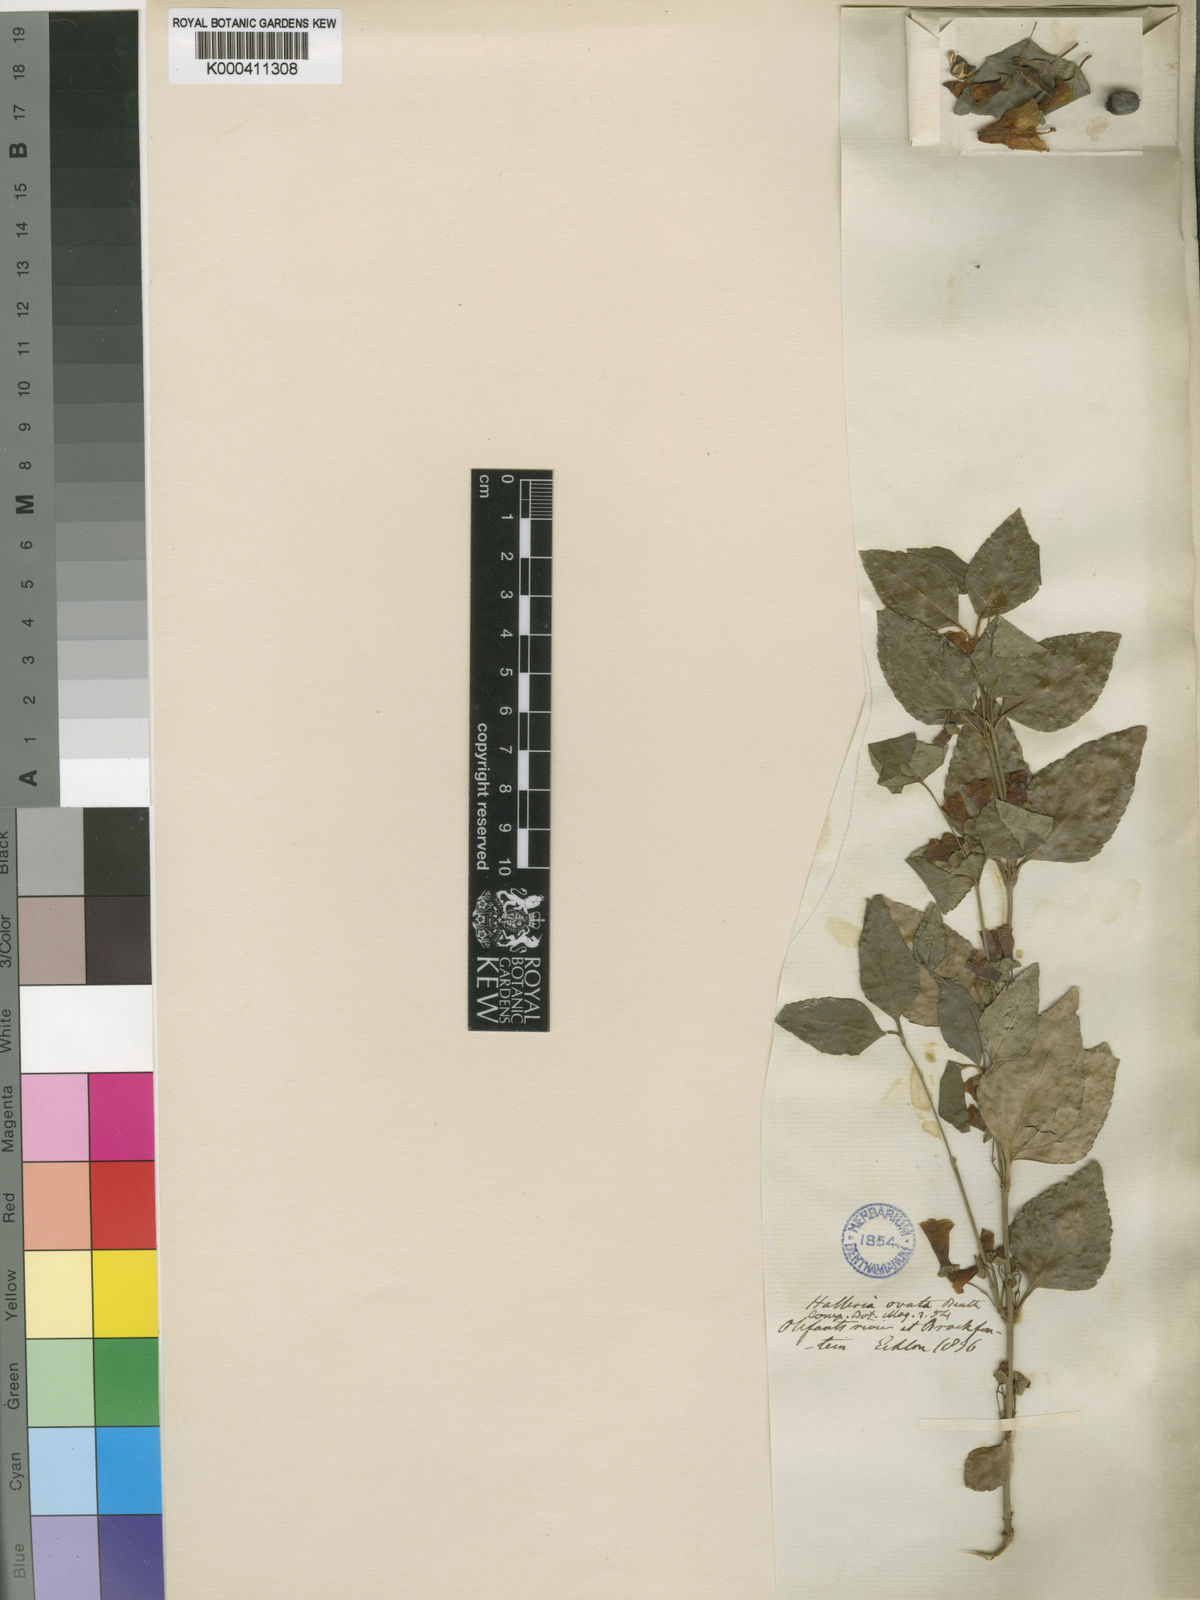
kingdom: Plantae
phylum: Tracheophyta
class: Magnoliopsida
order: Lamiales
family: Stilbaceae
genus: Halleria
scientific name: Halleria ovata
